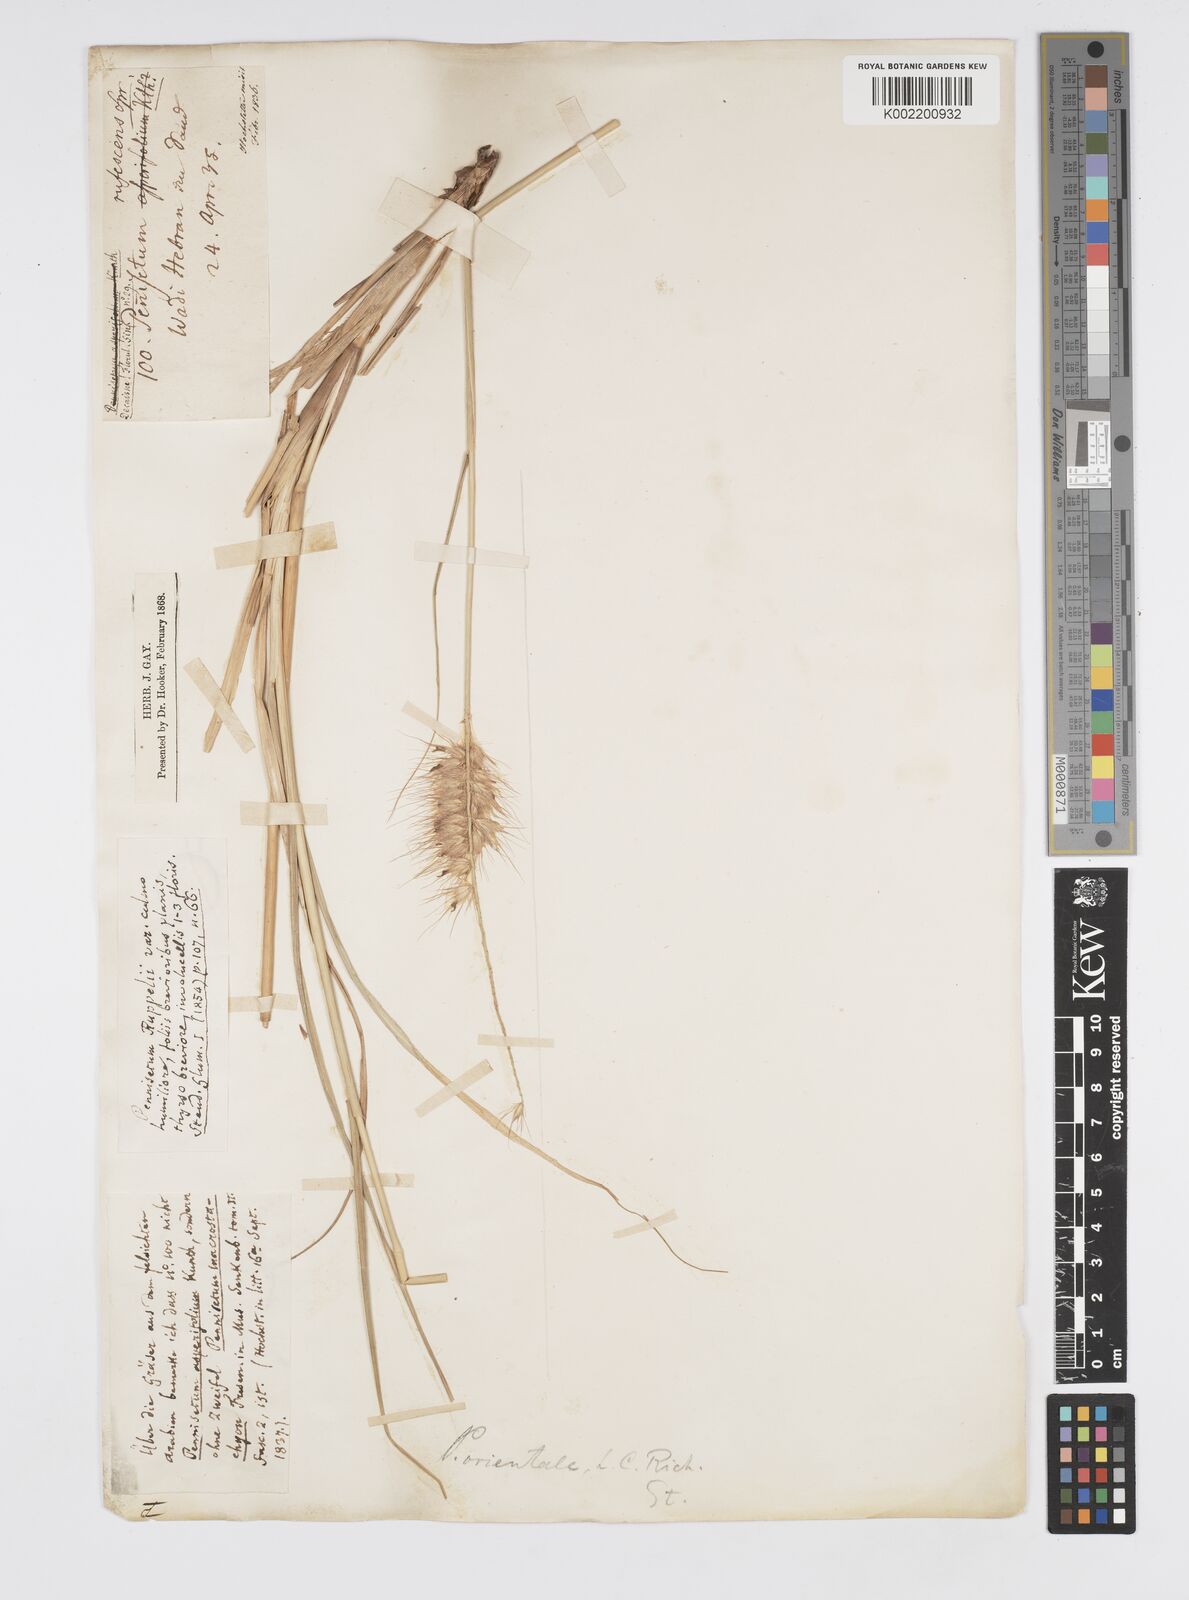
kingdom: Plantae
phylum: Tracheophyta
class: Liliopsida
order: Poales
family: Poaceae
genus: Cenchrus
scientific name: Cenchrus setaceus
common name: Crimson fountaingrass
